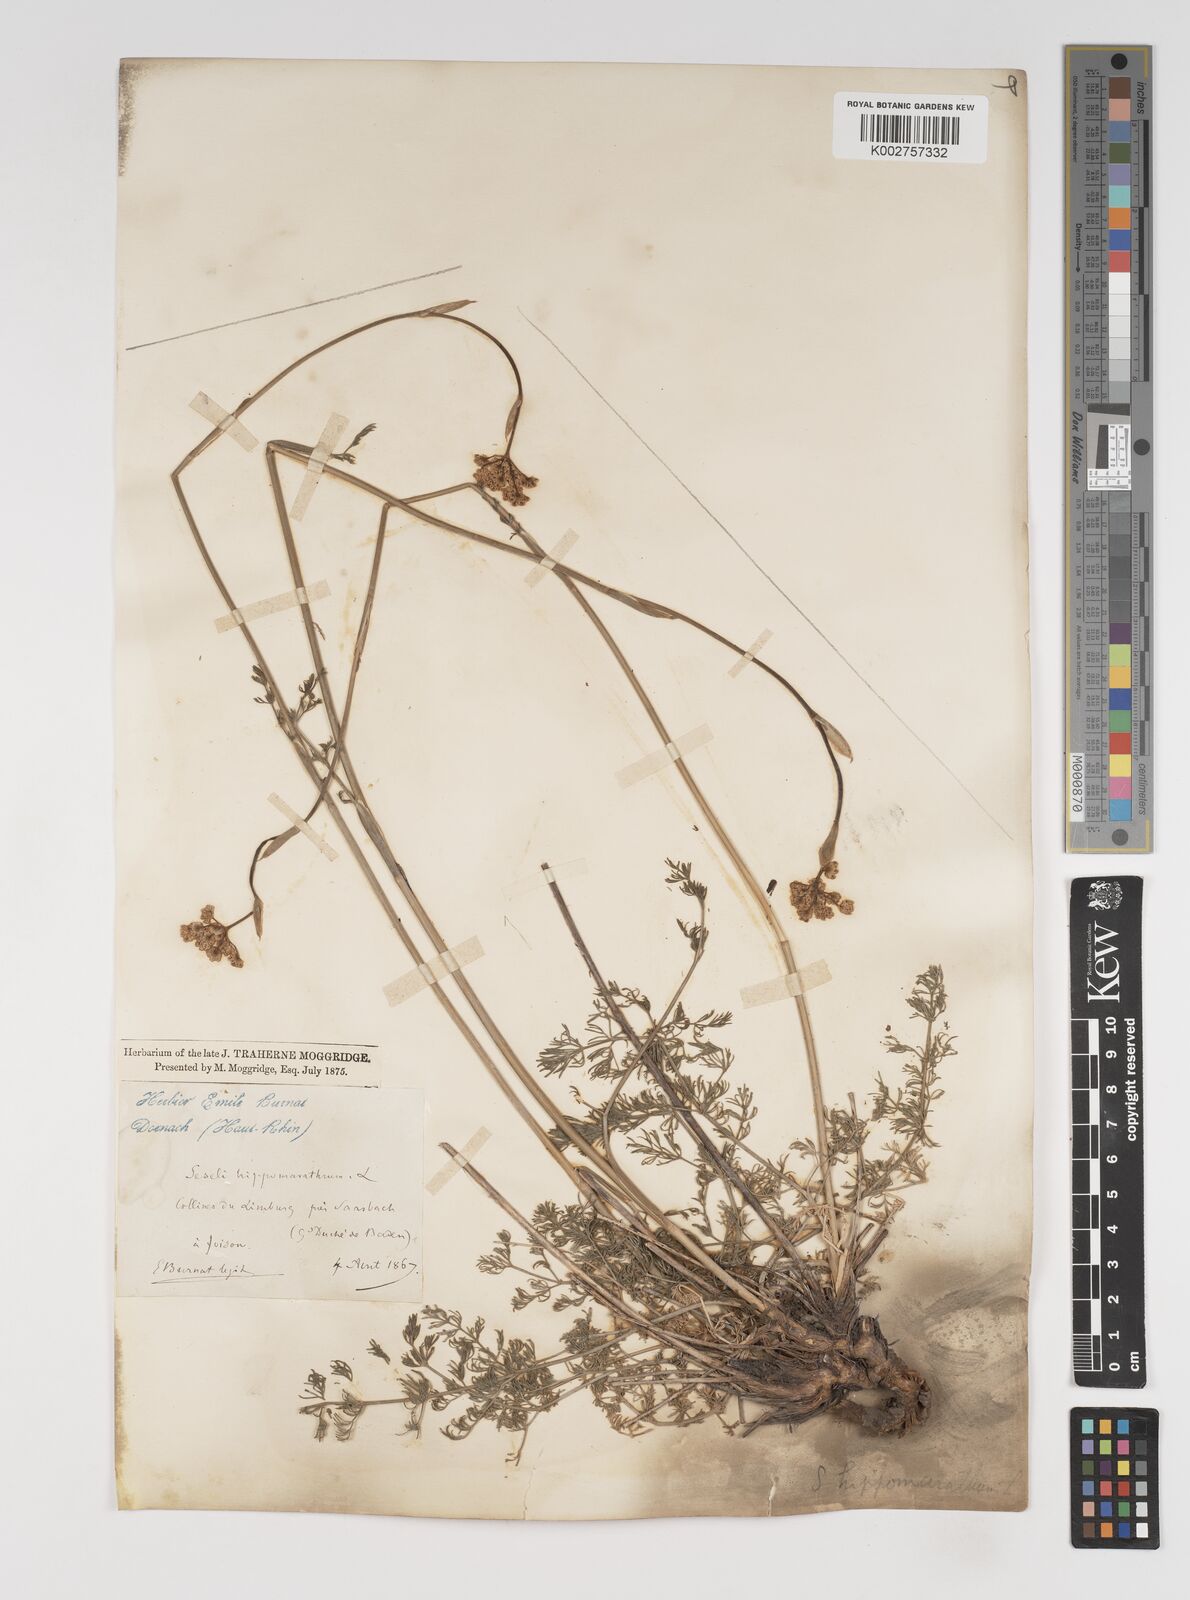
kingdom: Plantae
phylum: Tracheophyta
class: Magnoliopsida
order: Apiales
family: Apiaceae
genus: Hippomarathrum
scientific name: Hippomarathrum vulgare
